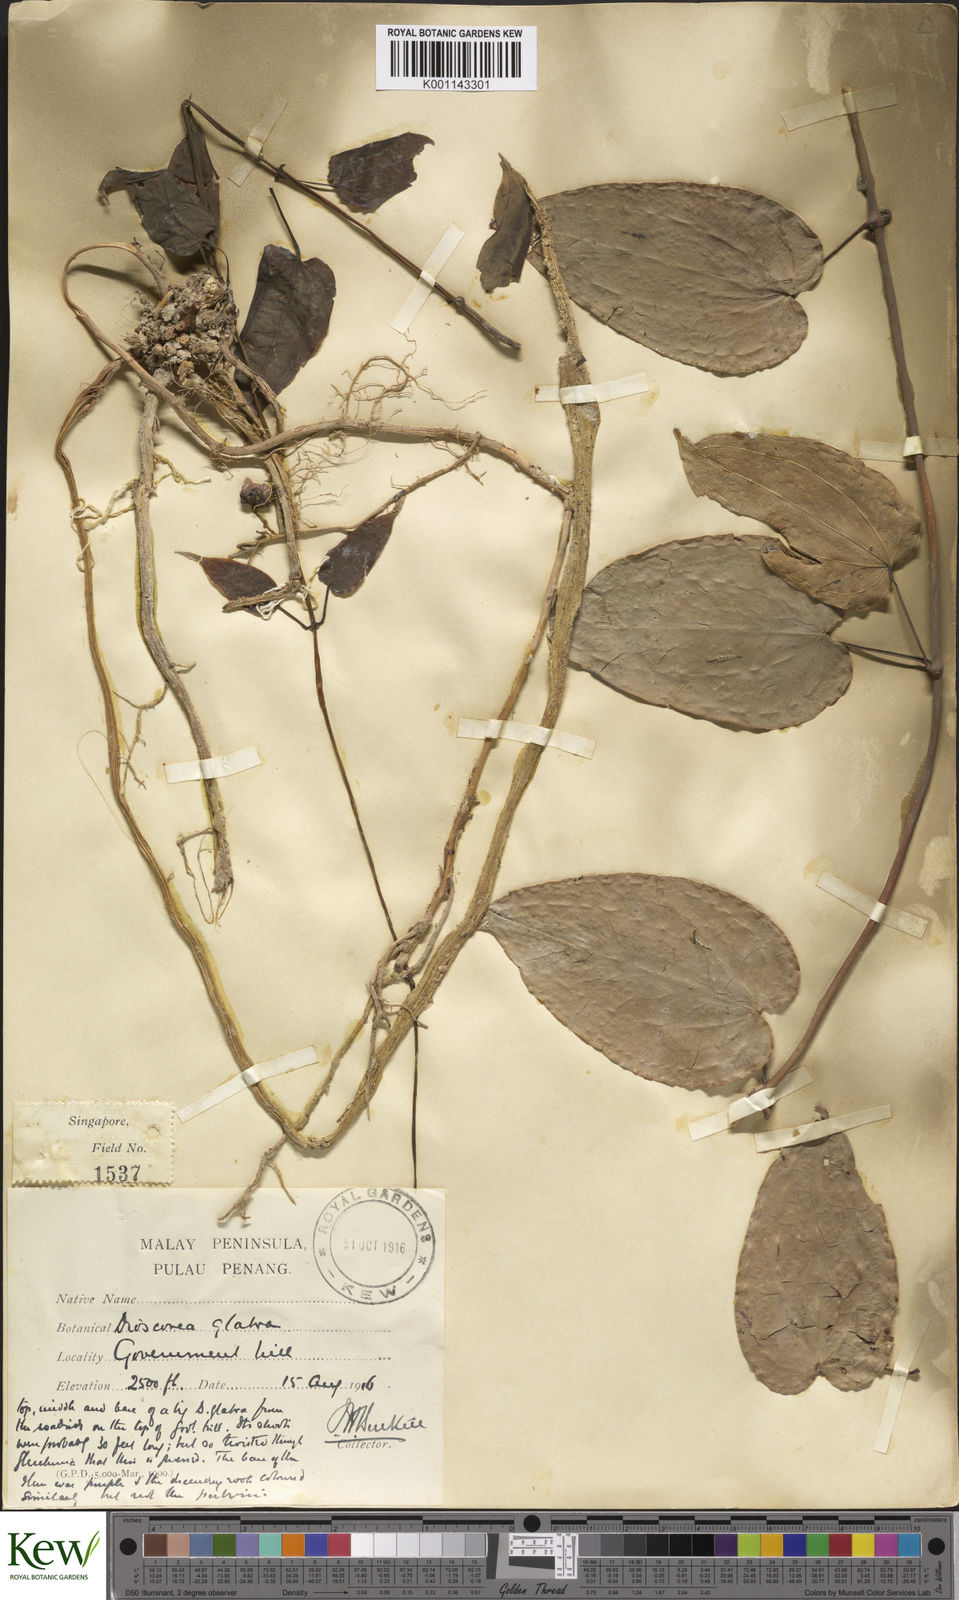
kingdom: Plantae
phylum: Tracheophyta
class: Liliopsida
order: Dioscoreales
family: Dioscoreaceae
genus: Dioscorea
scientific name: Dioscorea glabra
